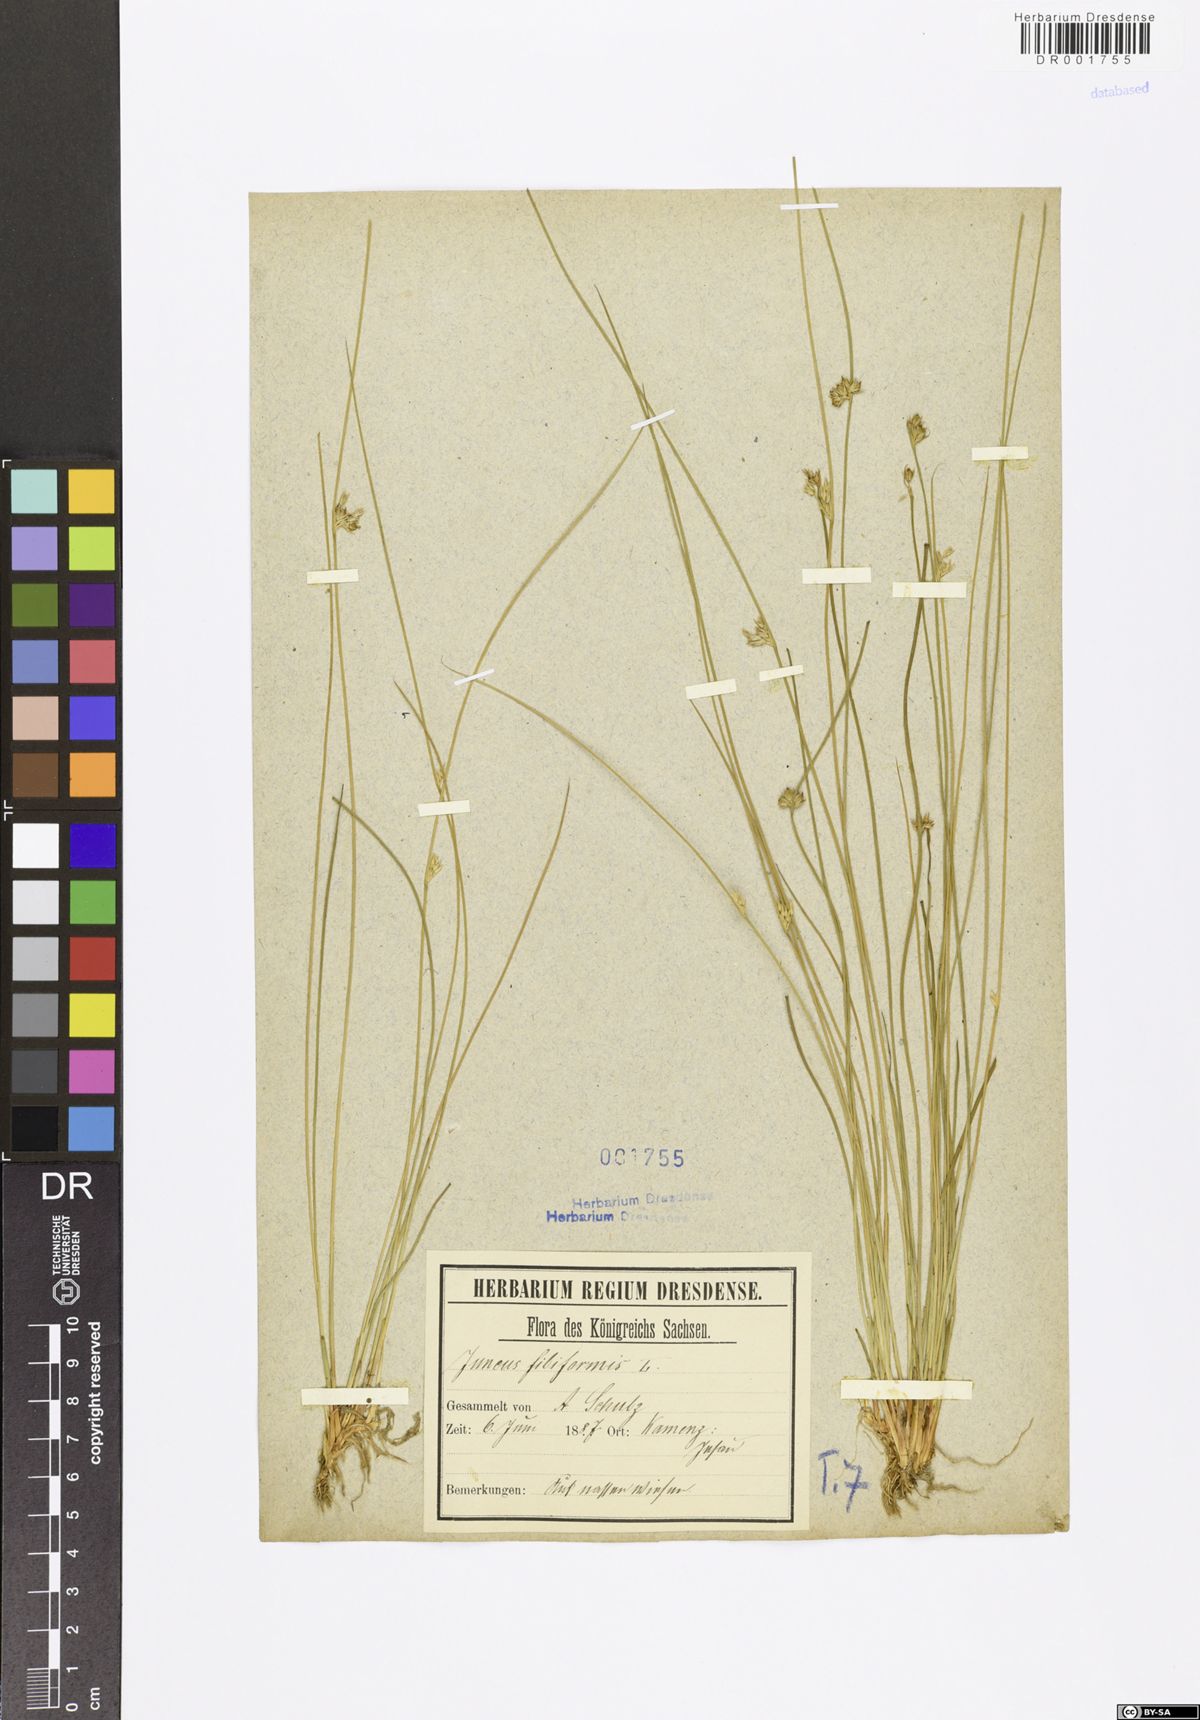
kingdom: Plantae
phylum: Tracheophyta
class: Liliopsida
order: Poales
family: Juncaceae
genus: Juncus
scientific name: Juncus inflexus
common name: Hard rush
